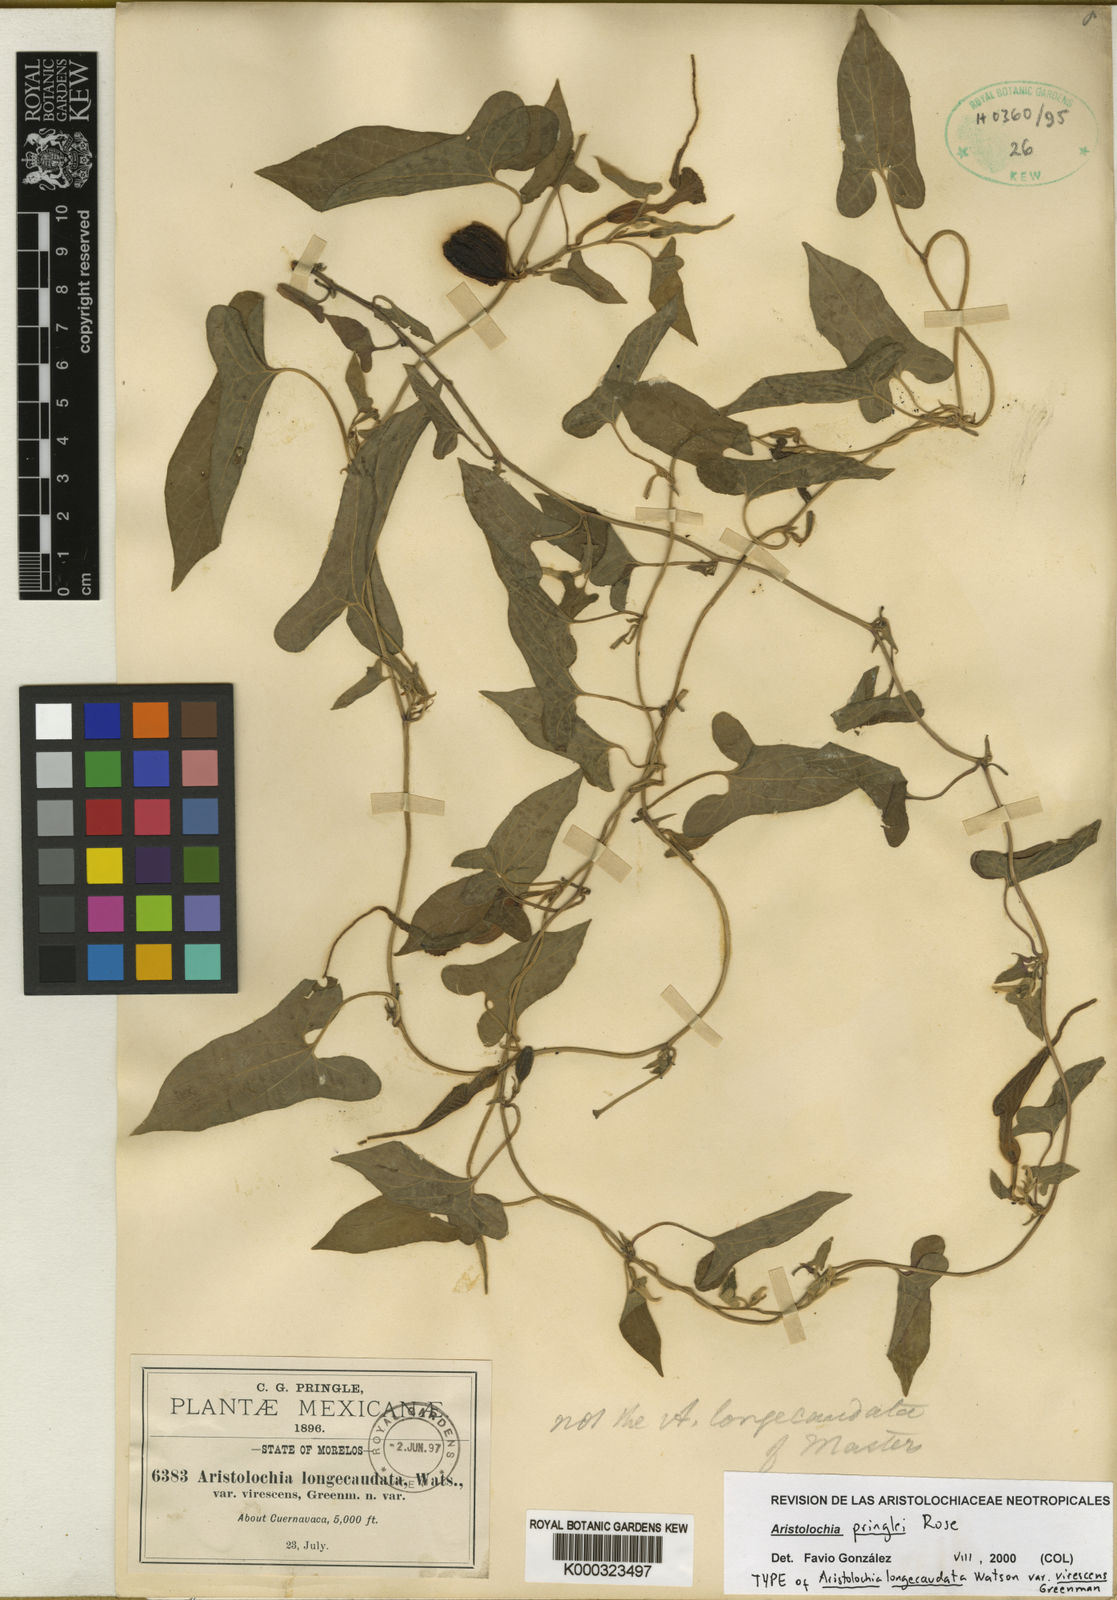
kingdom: Plantae
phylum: Tracheophyta
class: Magnoliopsida
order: Piperales
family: Aristolochiaceae
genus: Aristolochia
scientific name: Aristolochia pringlei
